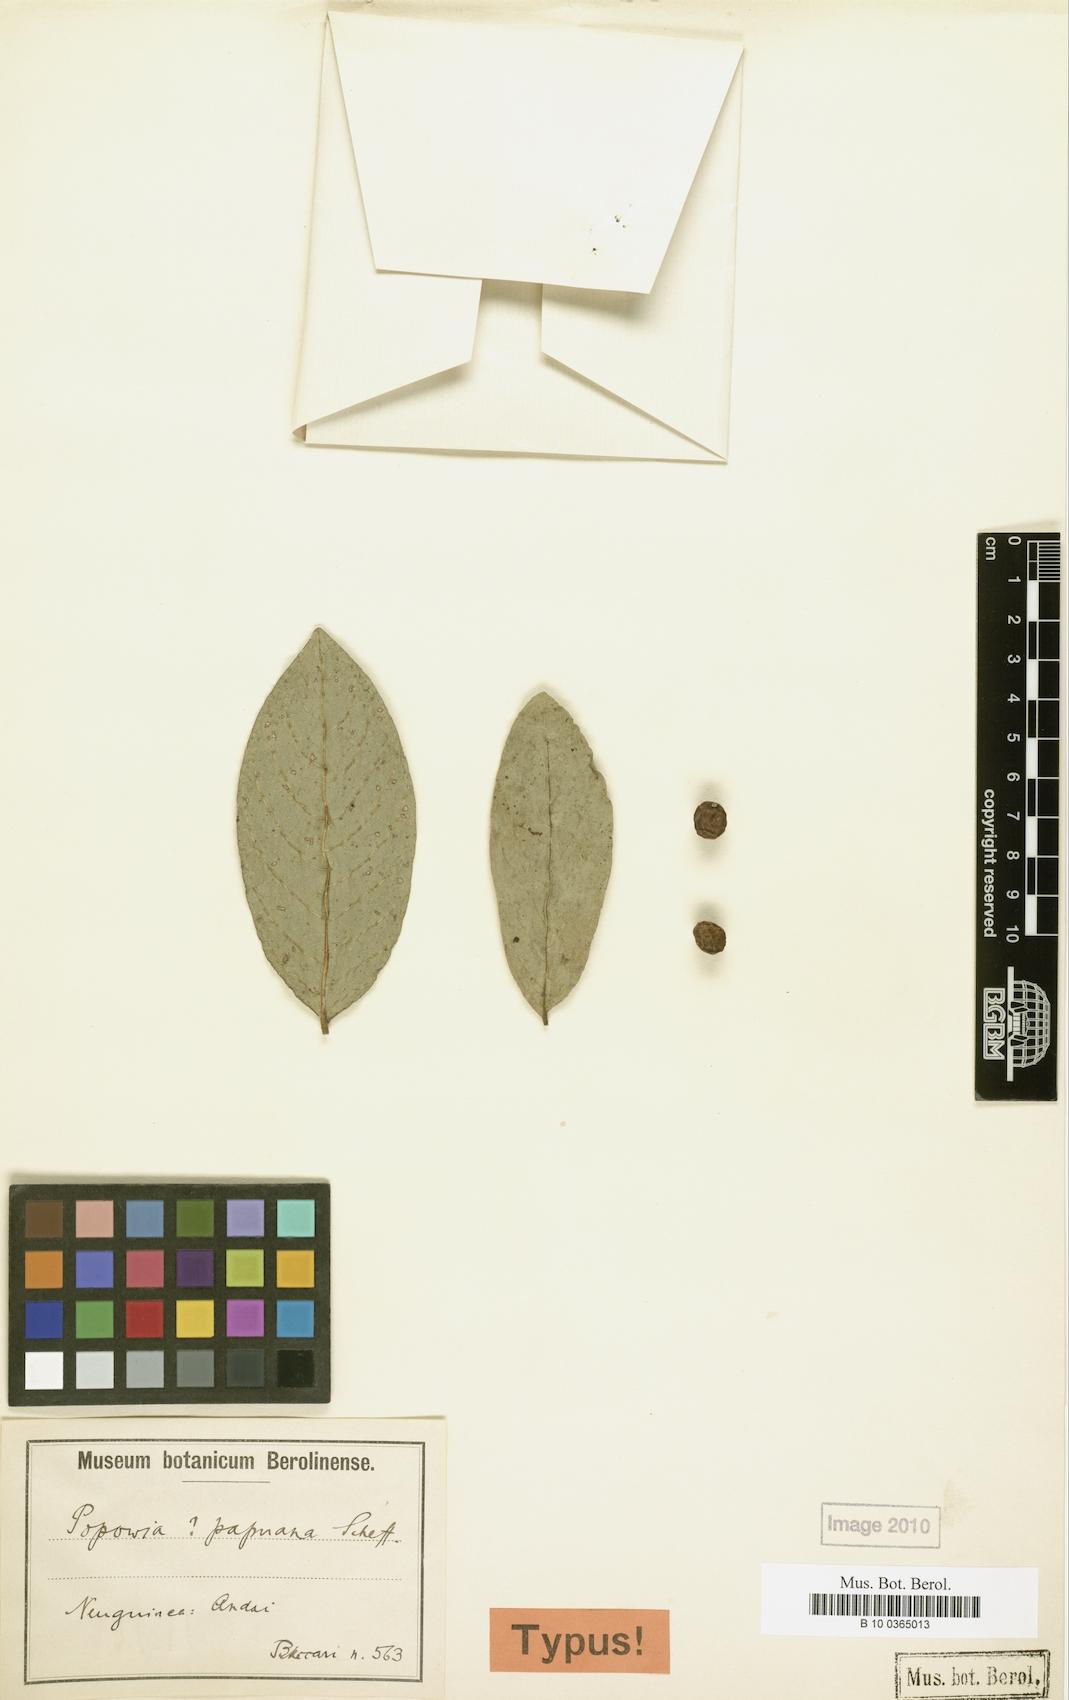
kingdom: Plantae
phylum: Tracheophyta
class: Magnoliopsida
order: Magnoliales
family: Annonaceae
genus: Popowia
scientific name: Popowia papuana
